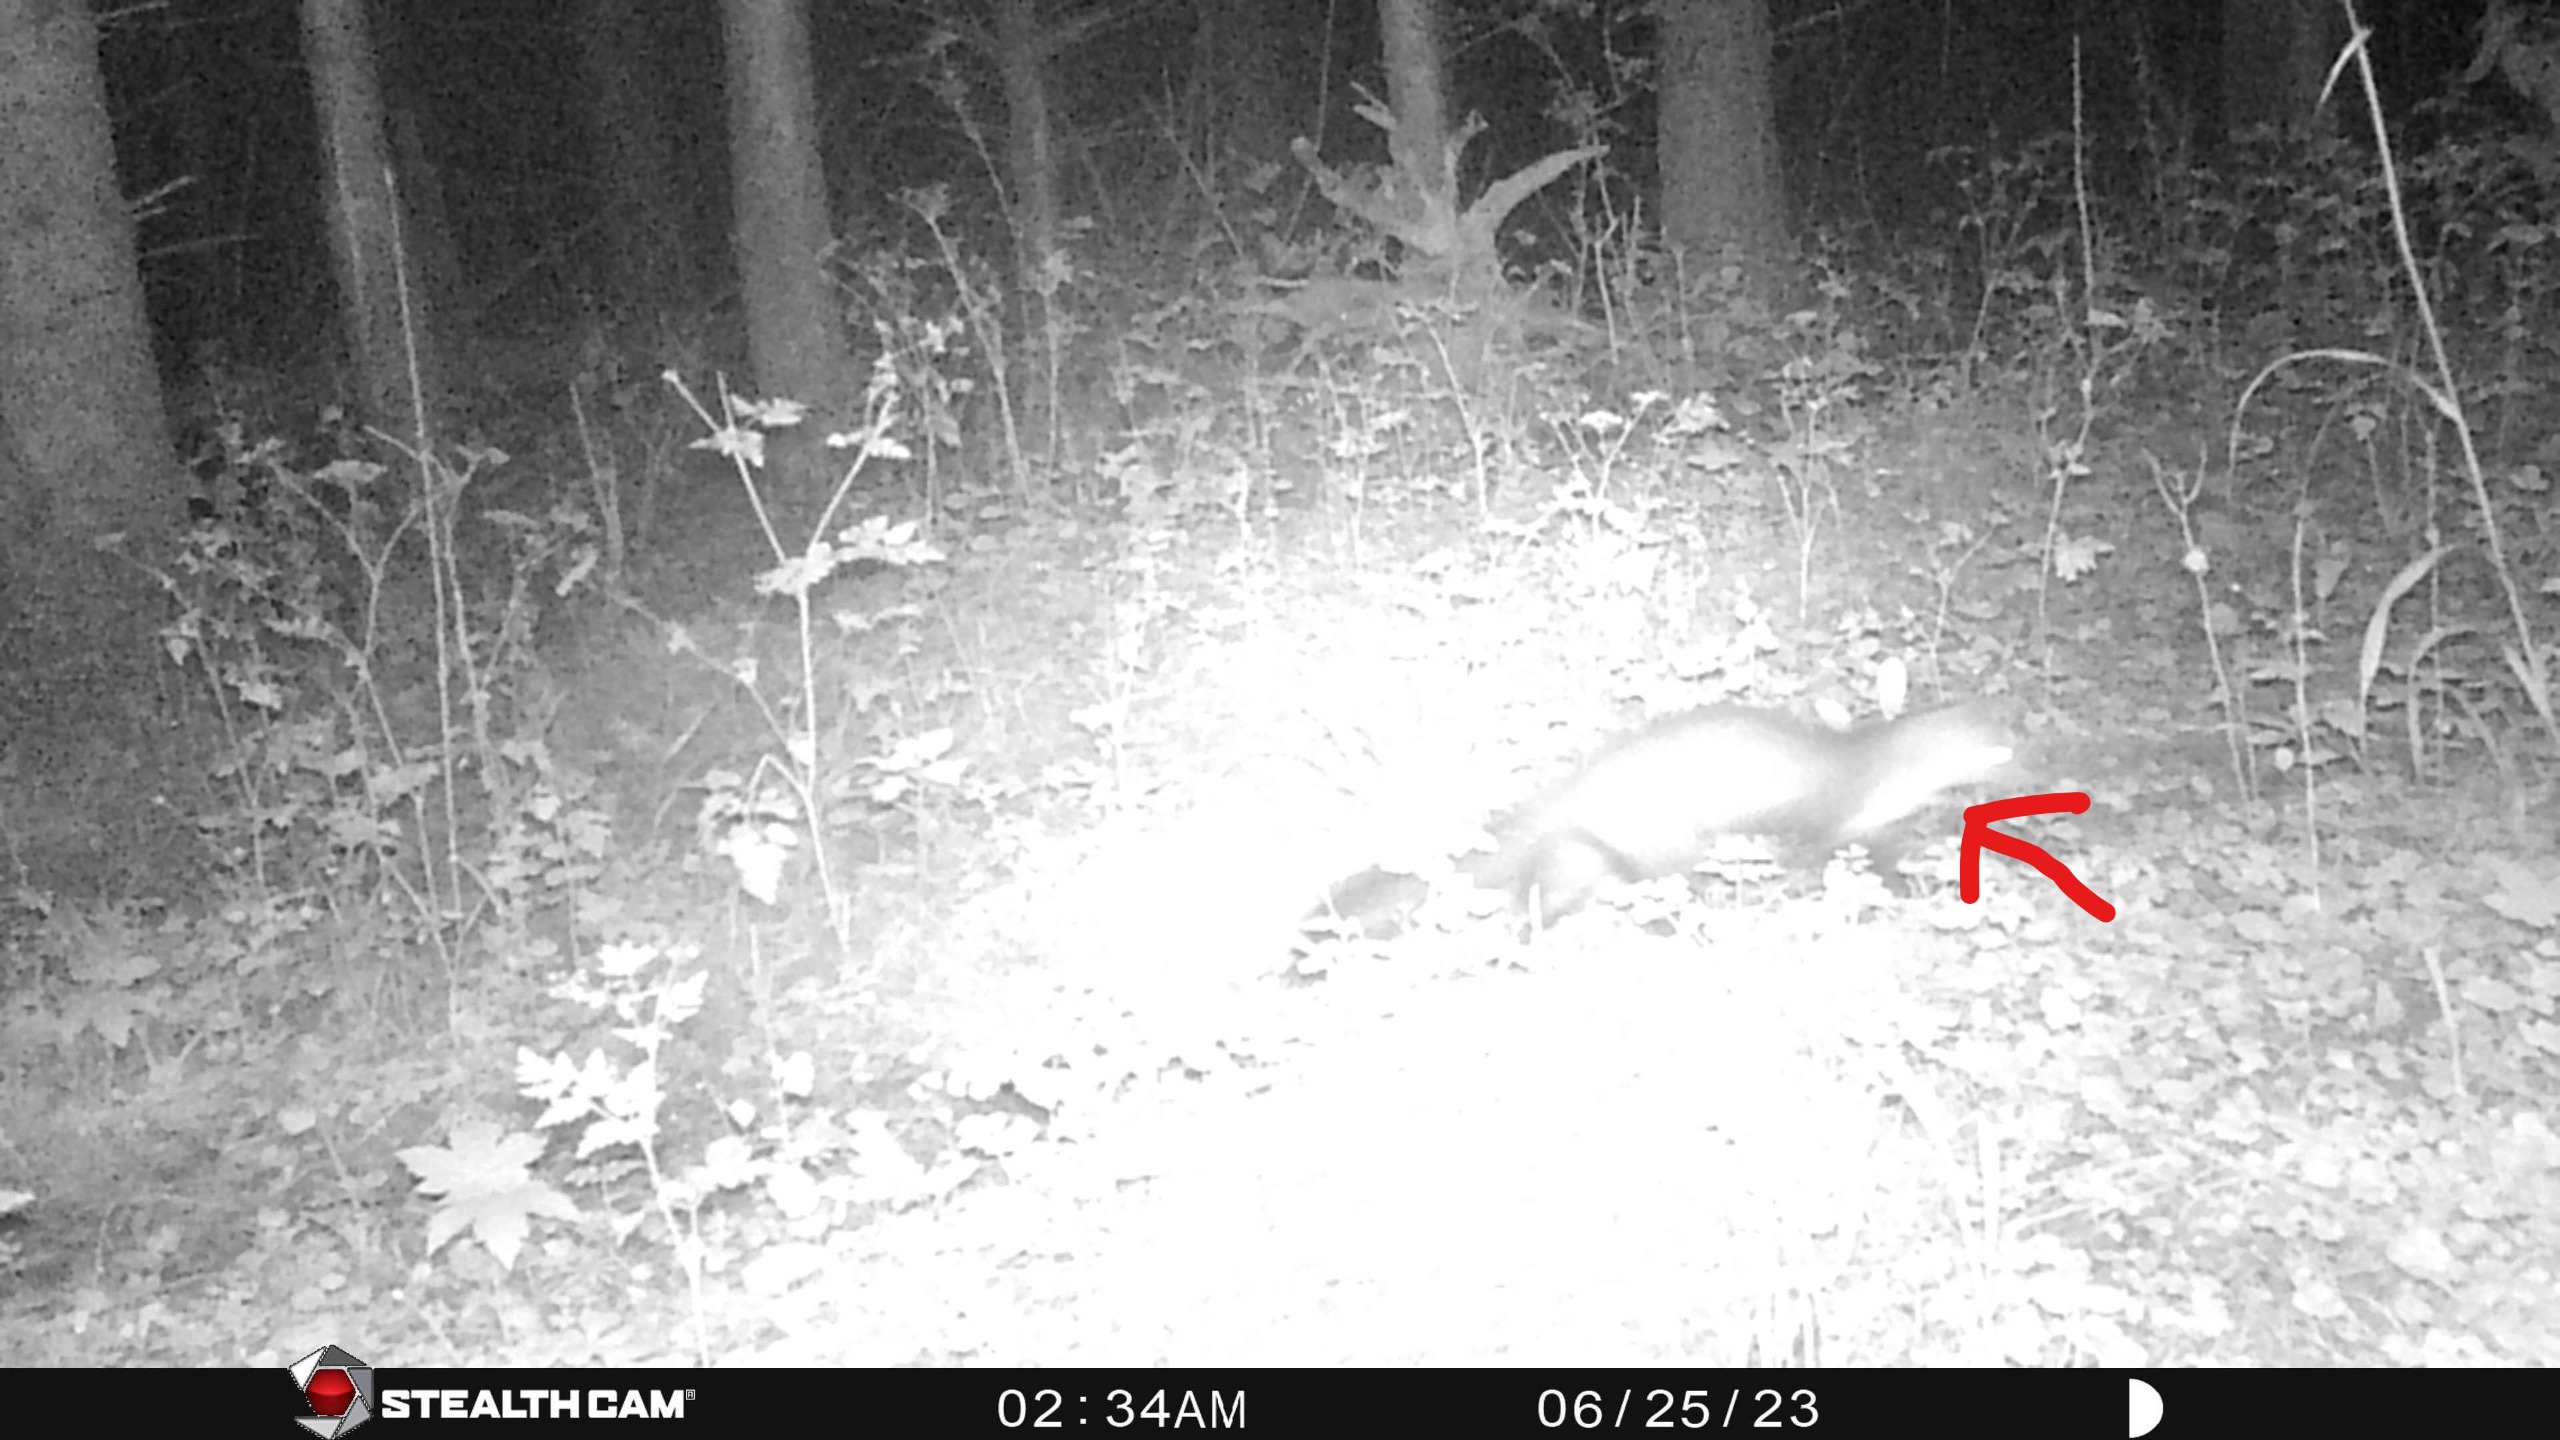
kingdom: Animalia
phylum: Chordata
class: Mammalia
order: Carnivora
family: Mustelidae
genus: Martes
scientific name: Martes foina
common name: Husmår
